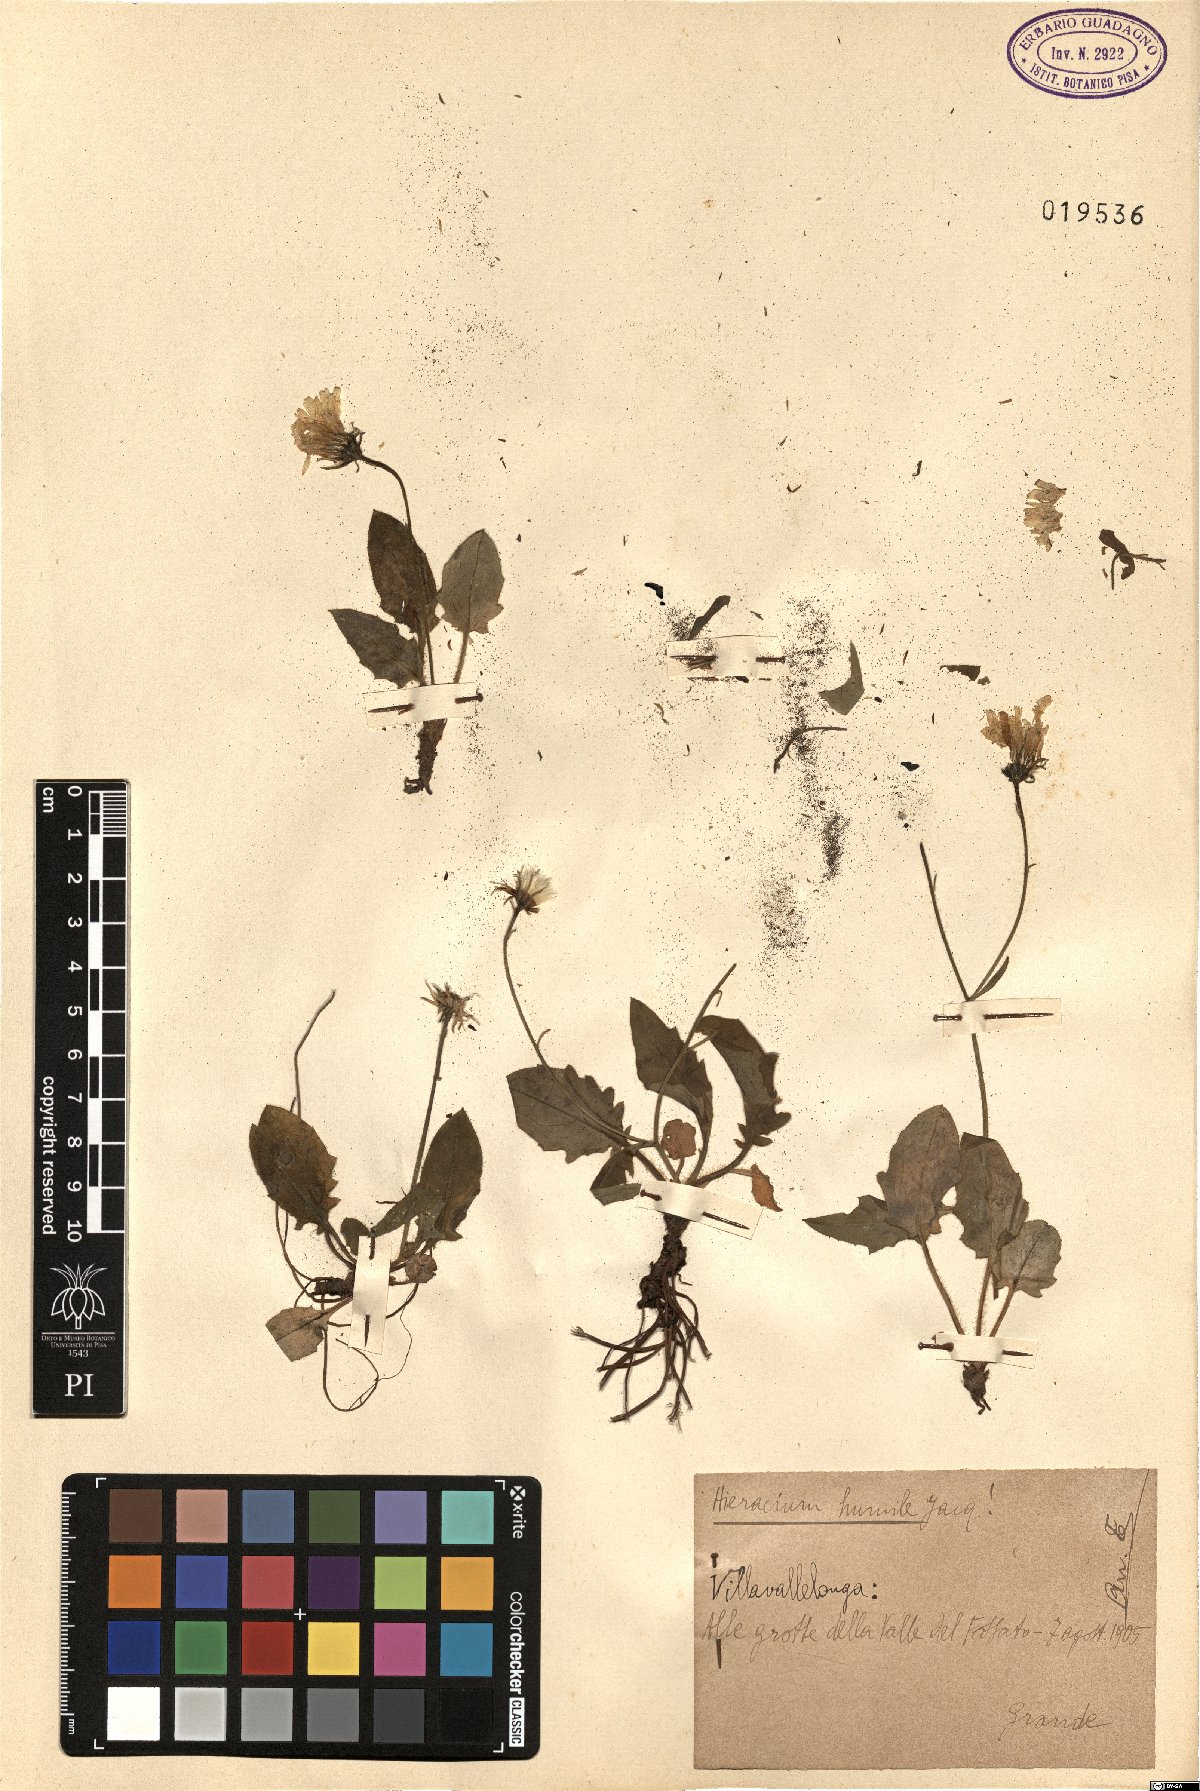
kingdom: Plantae
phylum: Tracheophyta
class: Magnoliopsida
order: Asterales
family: Asteraceae
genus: Hieracium
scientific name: Hieracium humile
